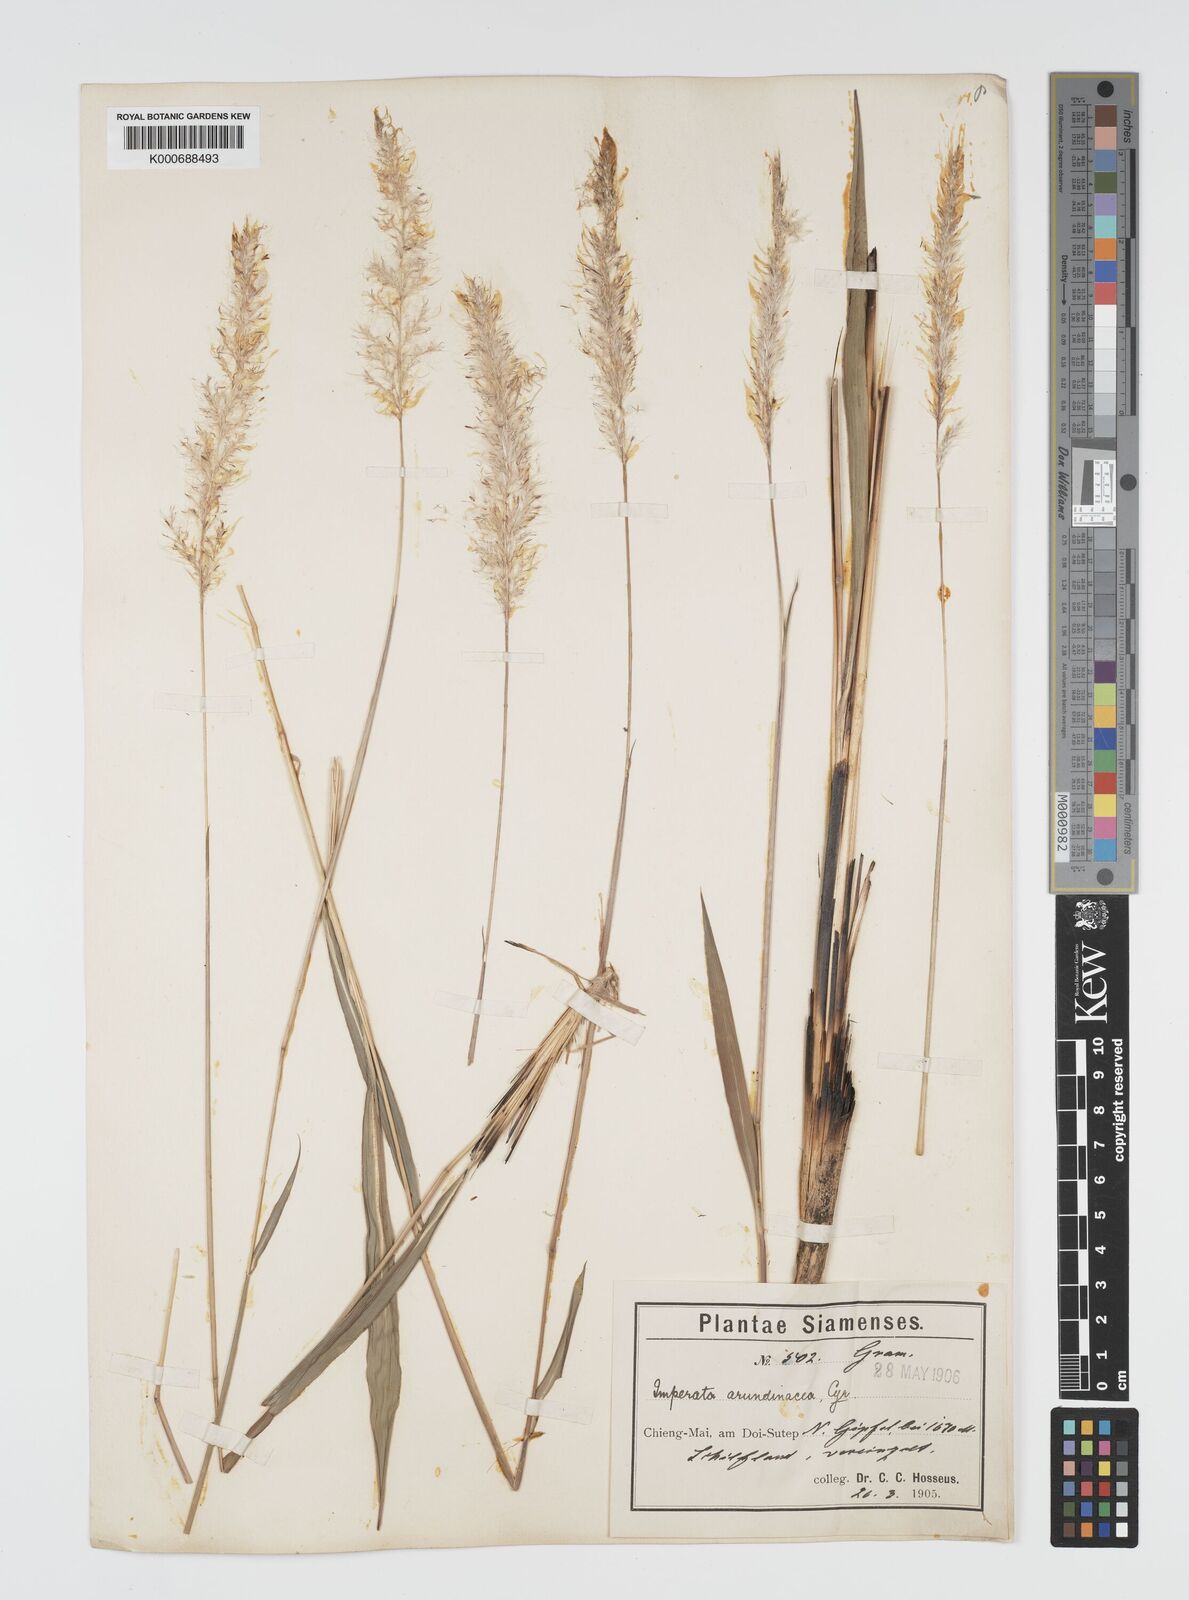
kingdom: Plantae
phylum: Tracheophyta
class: Liliopsida
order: Poales
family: Poaceae
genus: Imperata
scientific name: Imperata conferta
